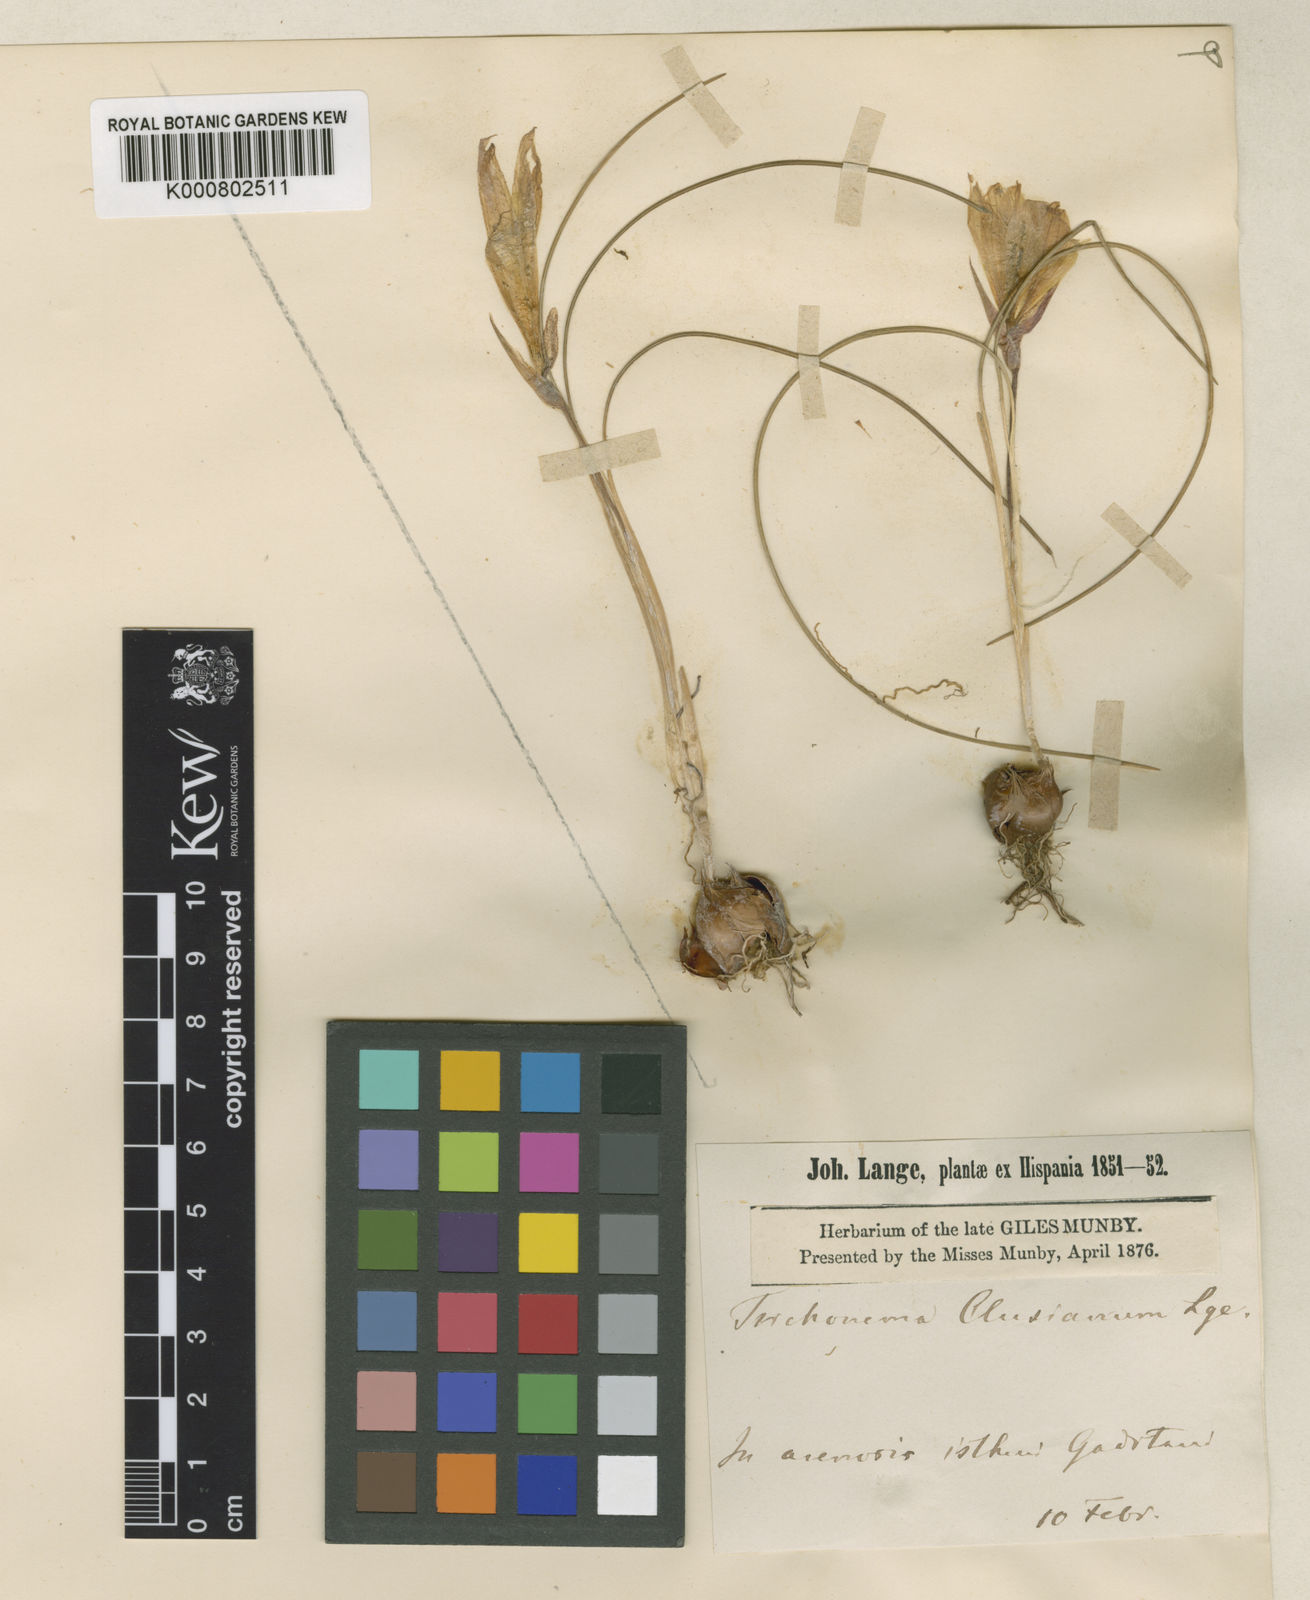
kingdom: Plantae
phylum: Tracheophyta
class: Liliopsida
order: Asparagales
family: Iridaceae
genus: Romulea
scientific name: Romulea rosea
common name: Oniongrass
